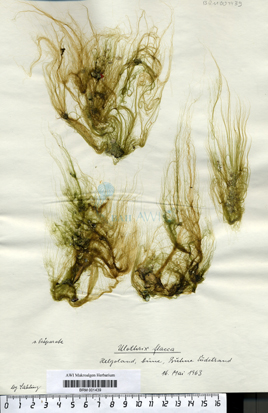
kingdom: Plantae
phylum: Chlorophyta
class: Ulvophyceae
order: Ulotrichales
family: Ulotrichaceae
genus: Ulothrix
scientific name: Ulothrix flacca
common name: Woolly hair
